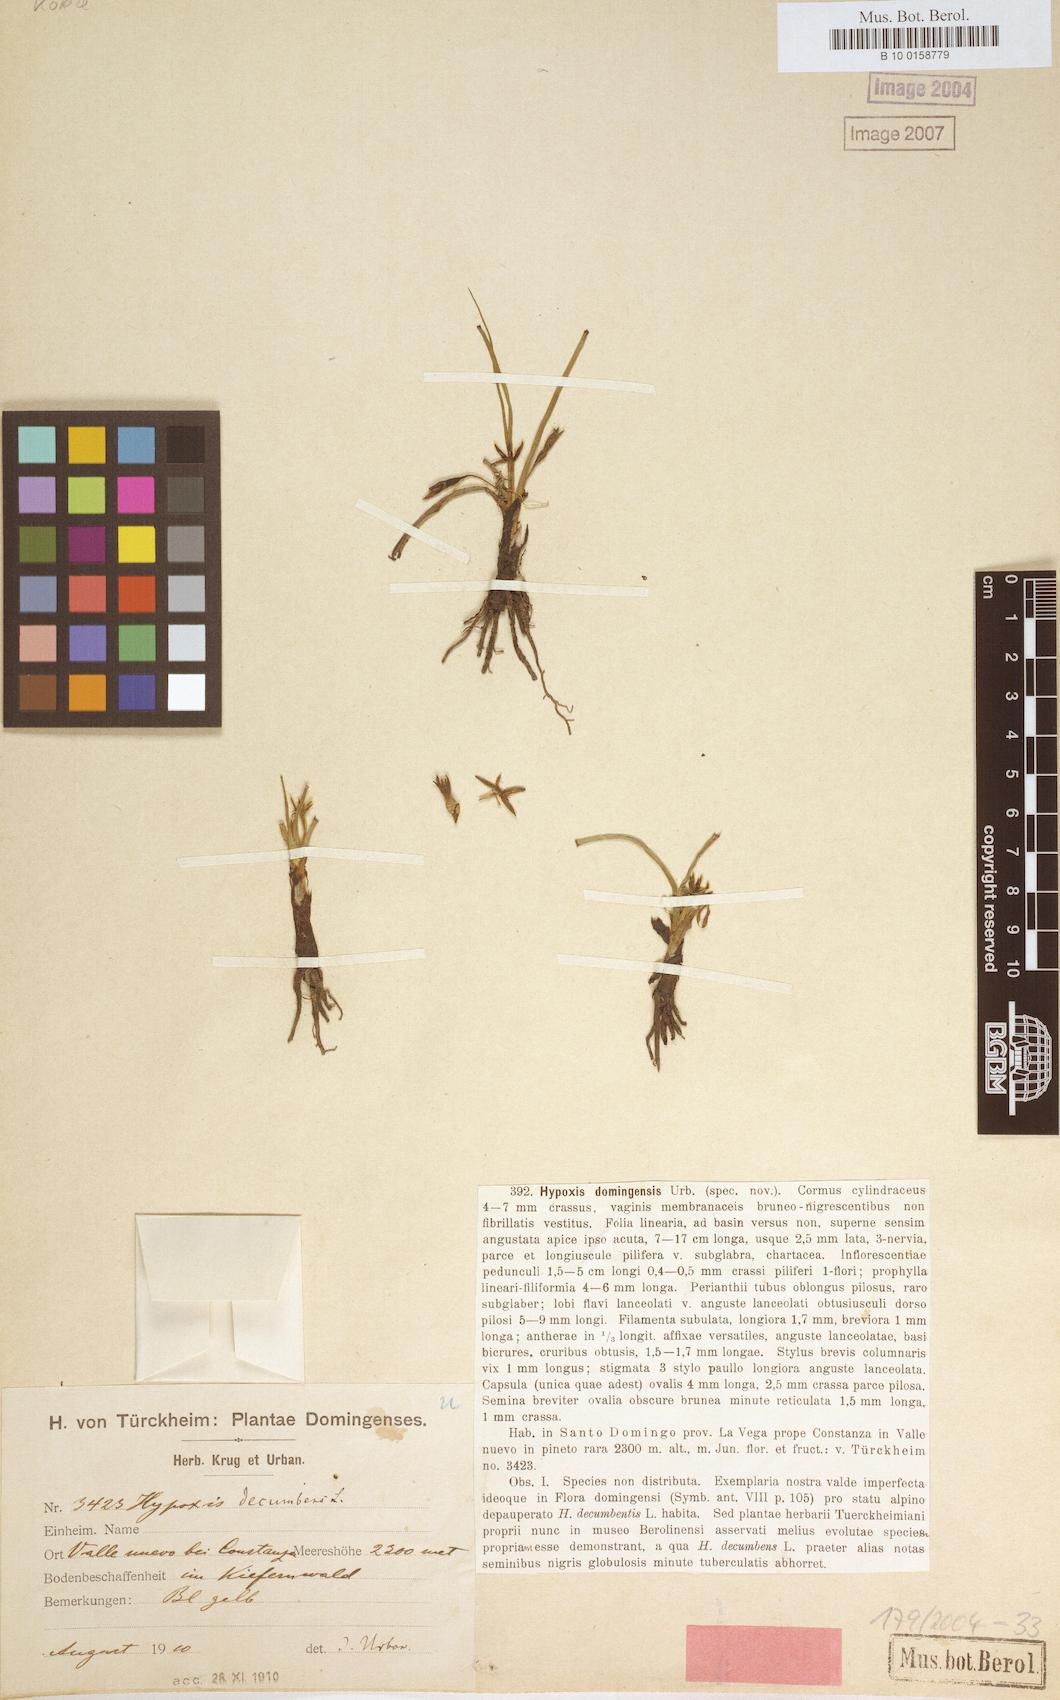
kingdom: Plantae
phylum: Tracheophyta
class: Liliopsida
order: Asparagales
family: Hypoxidaceae
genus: Hypoxis
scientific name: Hypoxis domingensis
